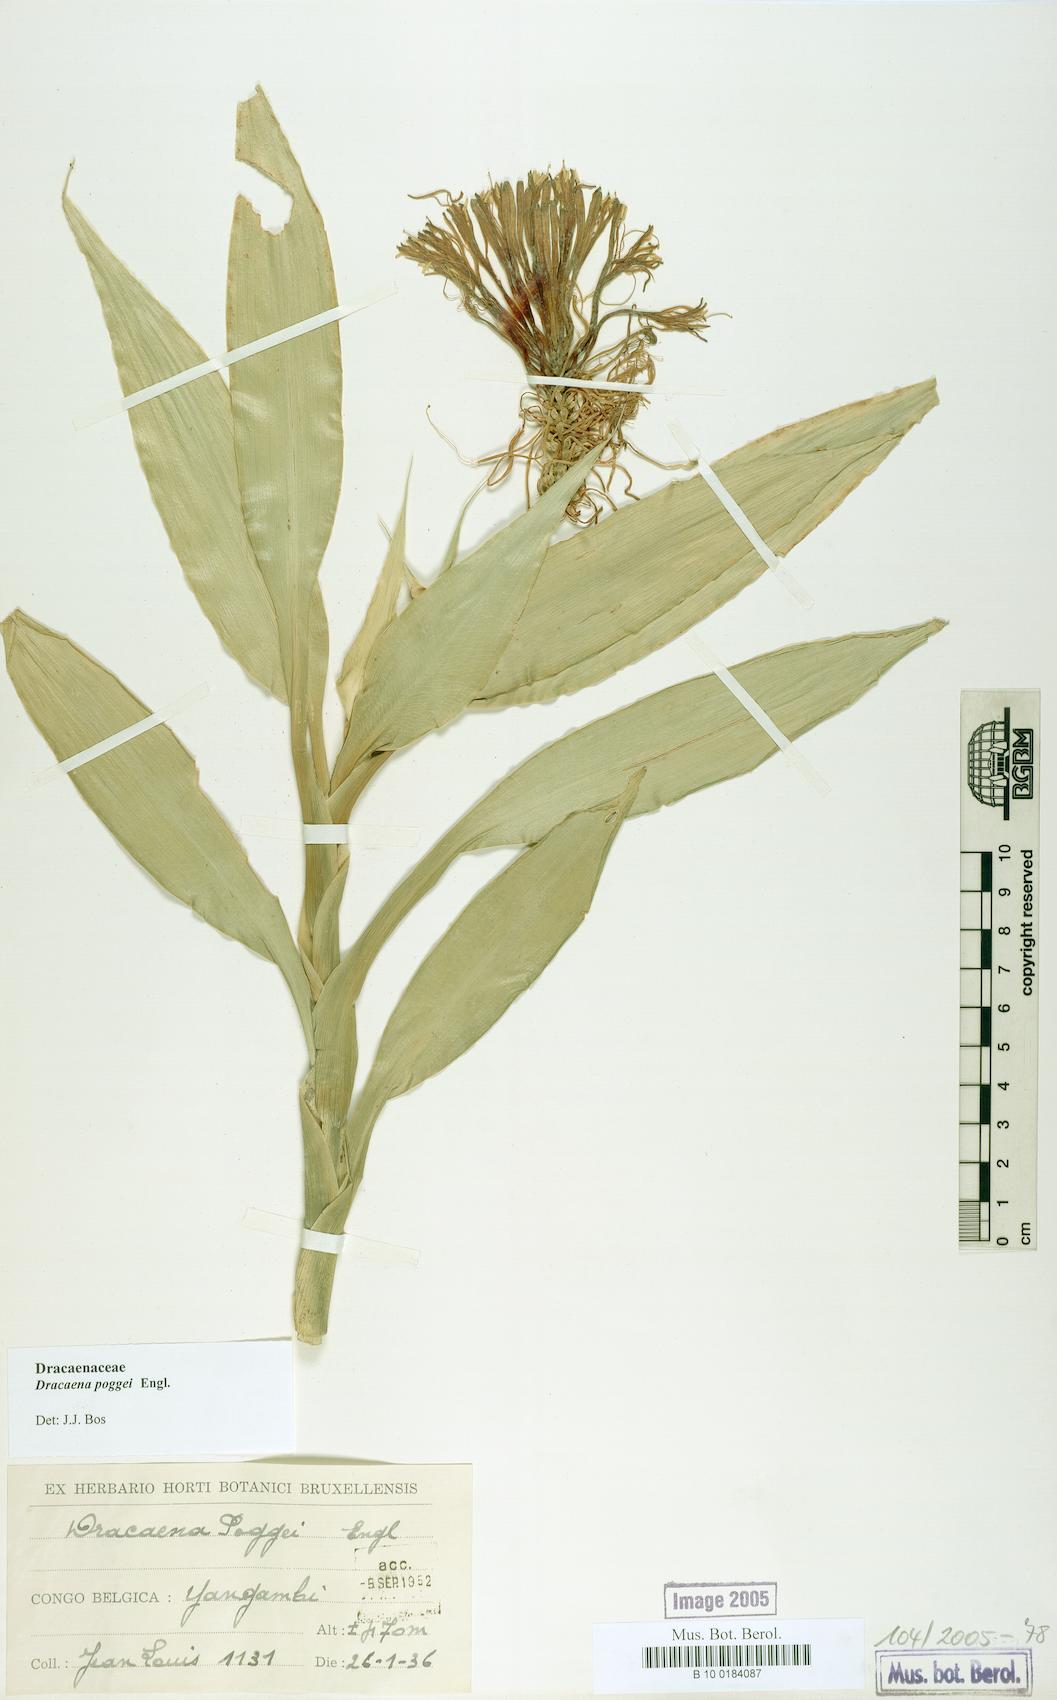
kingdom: Plantae
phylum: Tracheophyta
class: Liliopsida
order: Asparagales
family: Asparagaceae
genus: Dracaena
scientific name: Dracaena sanderiana
